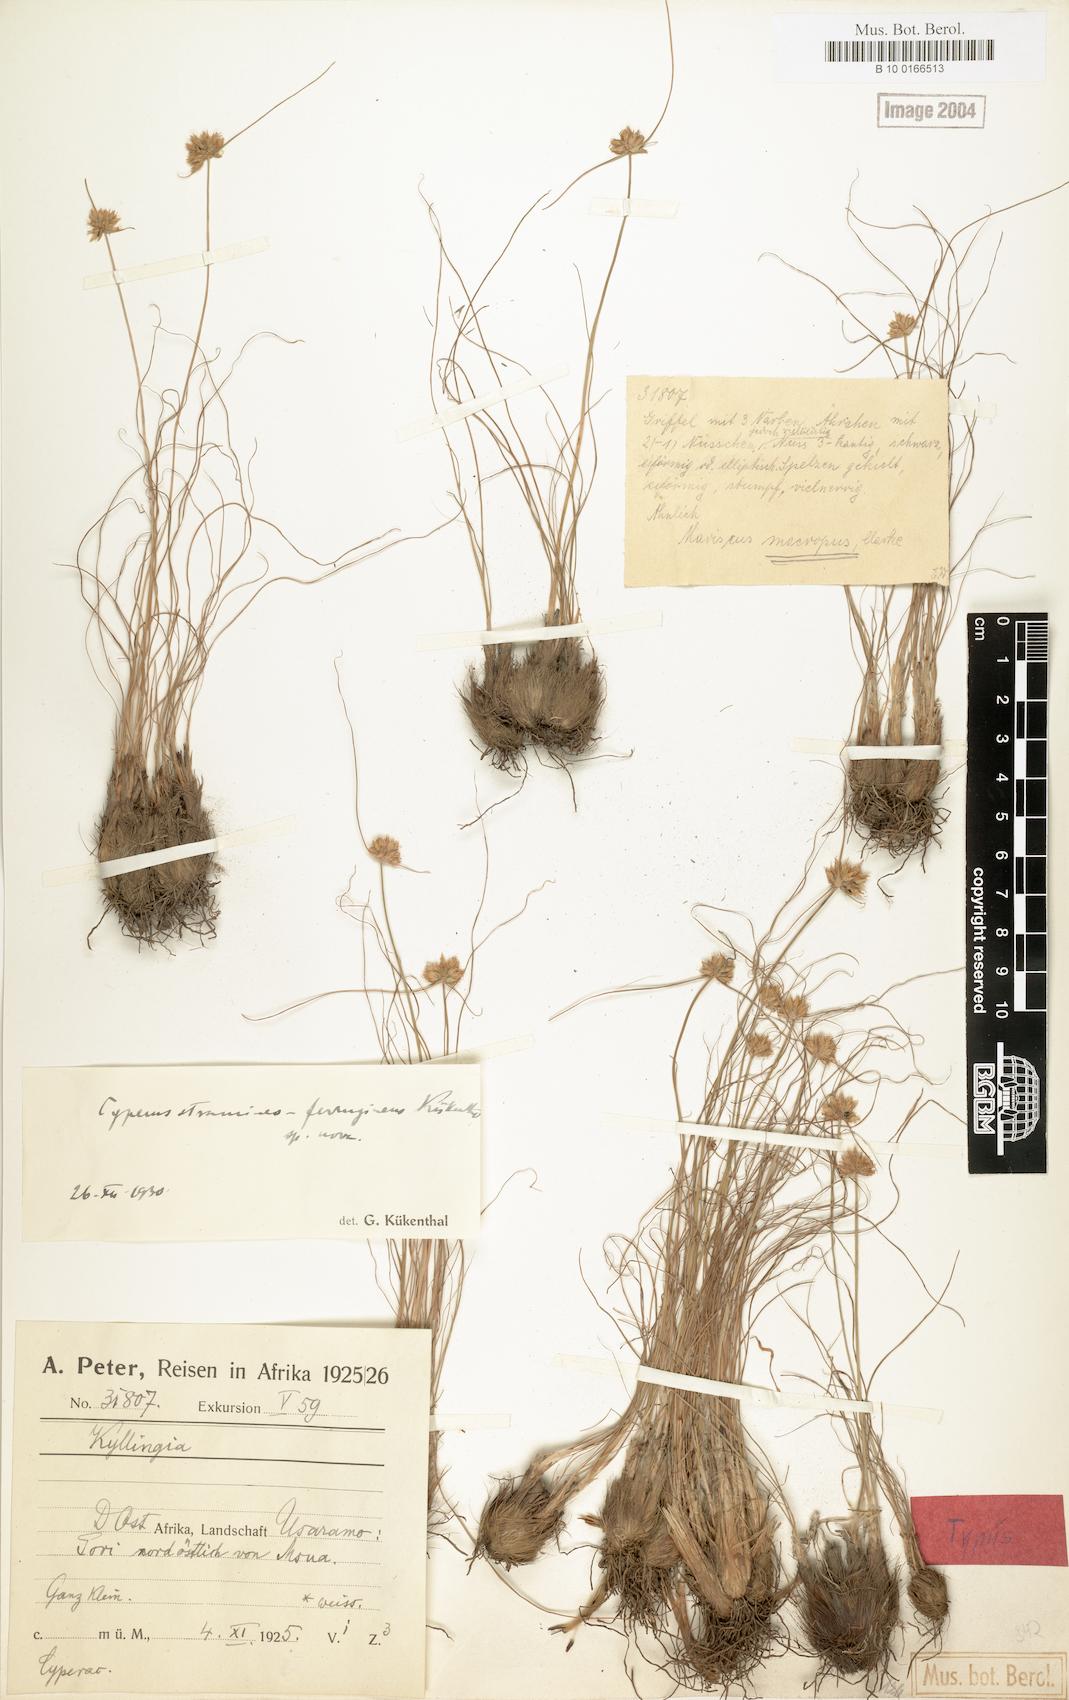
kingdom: Plantae
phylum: Tracheophyta
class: Liliopsida
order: Poales
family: Cyperaceae
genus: Cyperus
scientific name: Cyperus stramineoferrugineus
